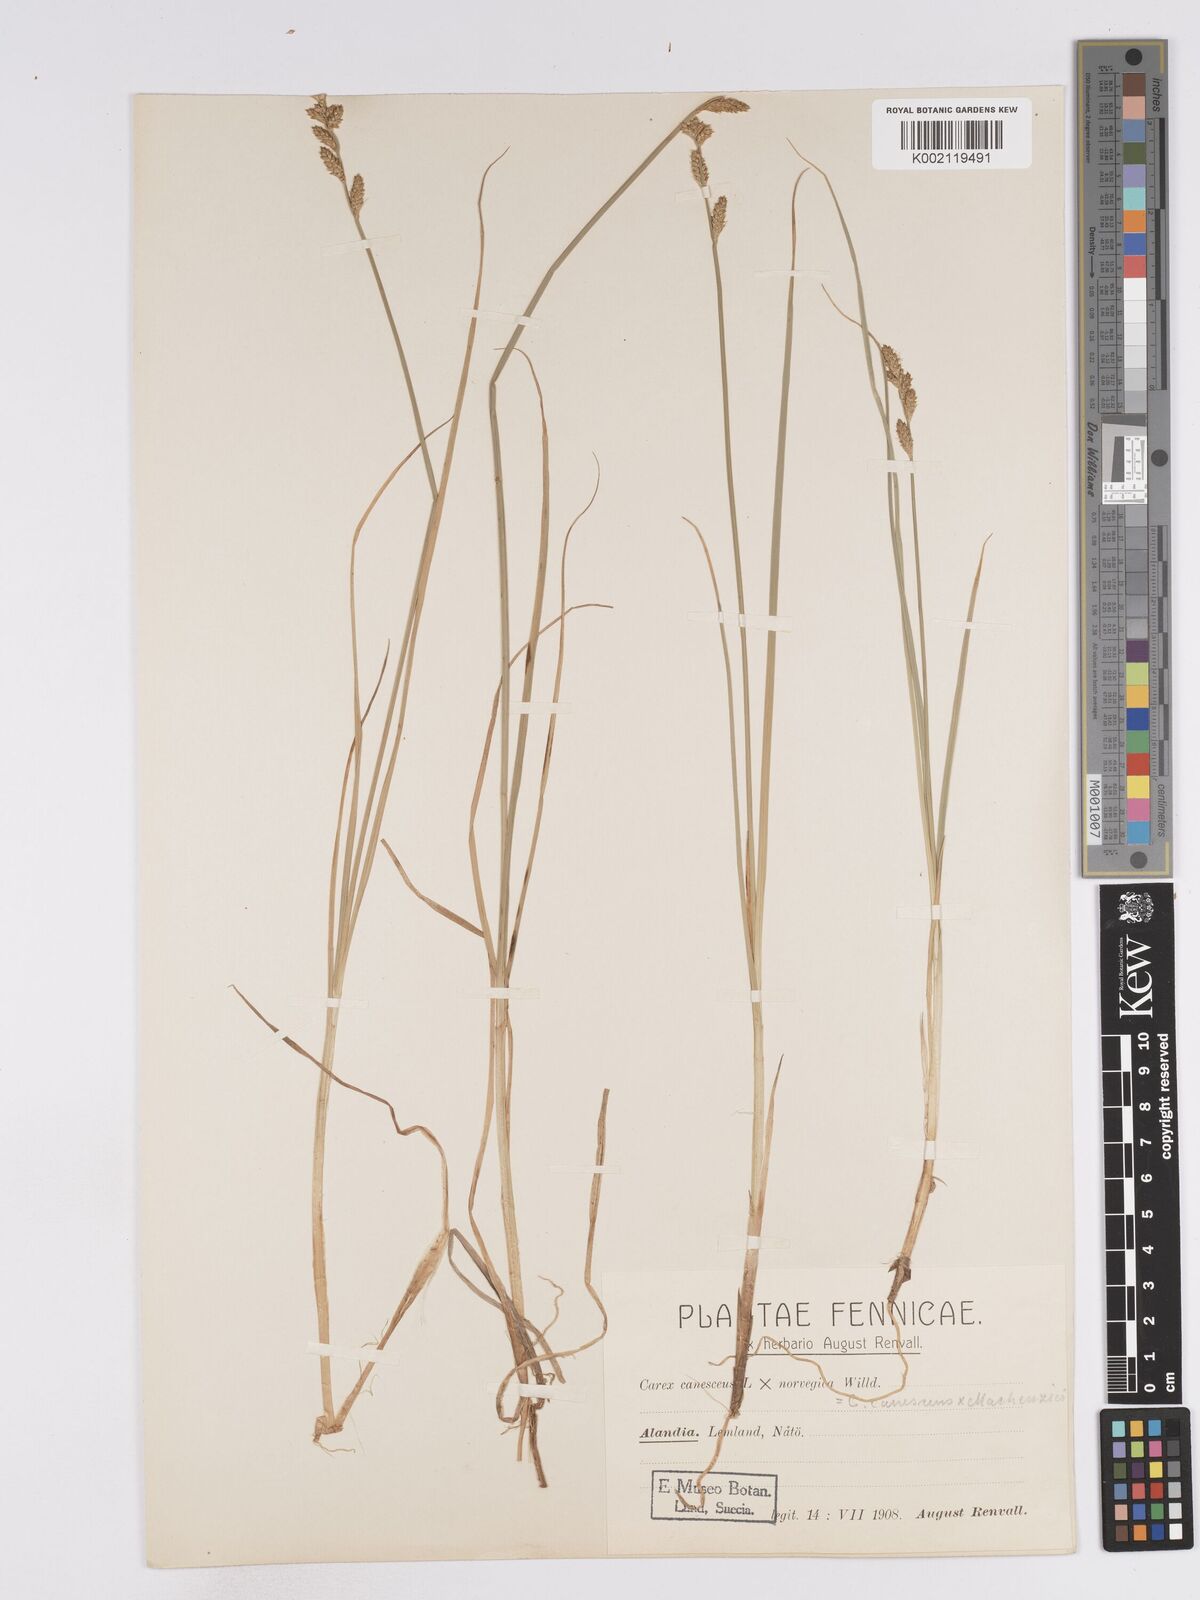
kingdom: Plantae
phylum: Tracheophyta
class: Liliopsida
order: Poales
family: Cyperaceae
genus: Carex
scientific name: Carex mackenziei
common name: Mackenzie's sedge
